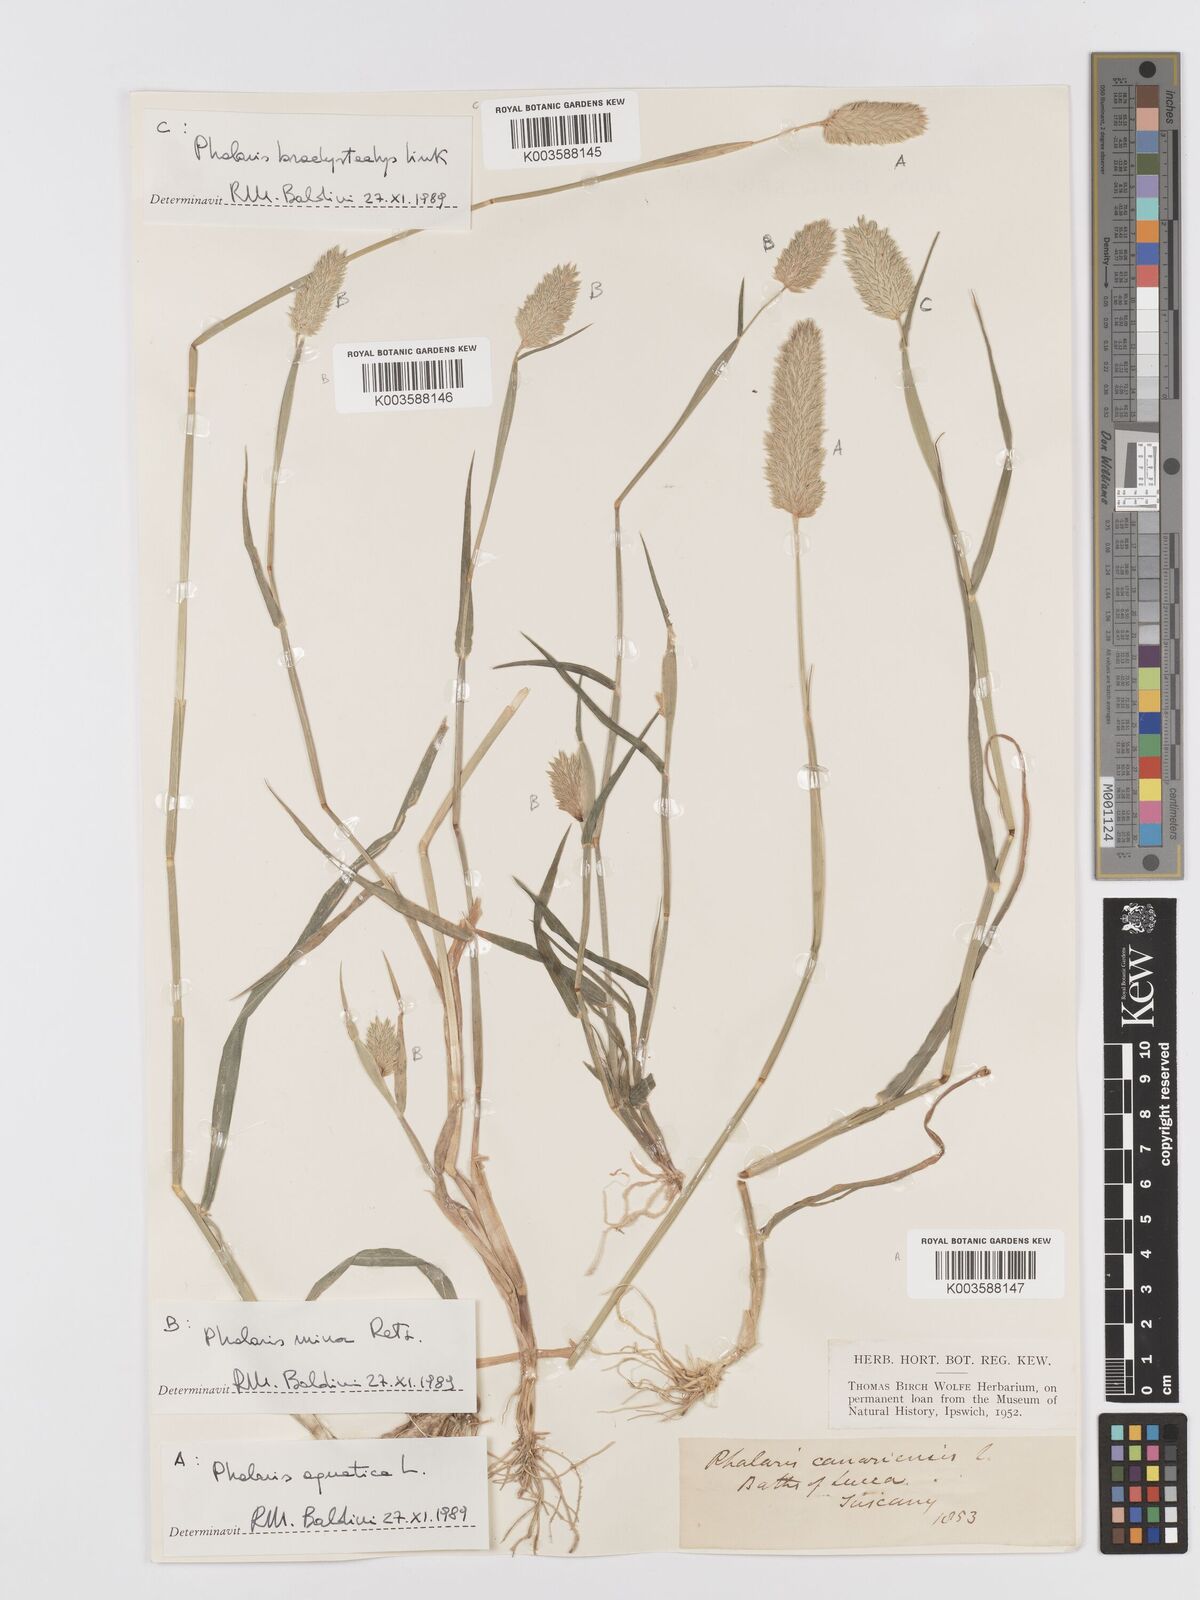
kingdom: Plantae
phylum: Tracheophyta
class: Liliopsida
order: Poales
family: Poaceae
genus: Phalaris
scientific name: Phalaris canariensis
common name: Annual canarygrass
